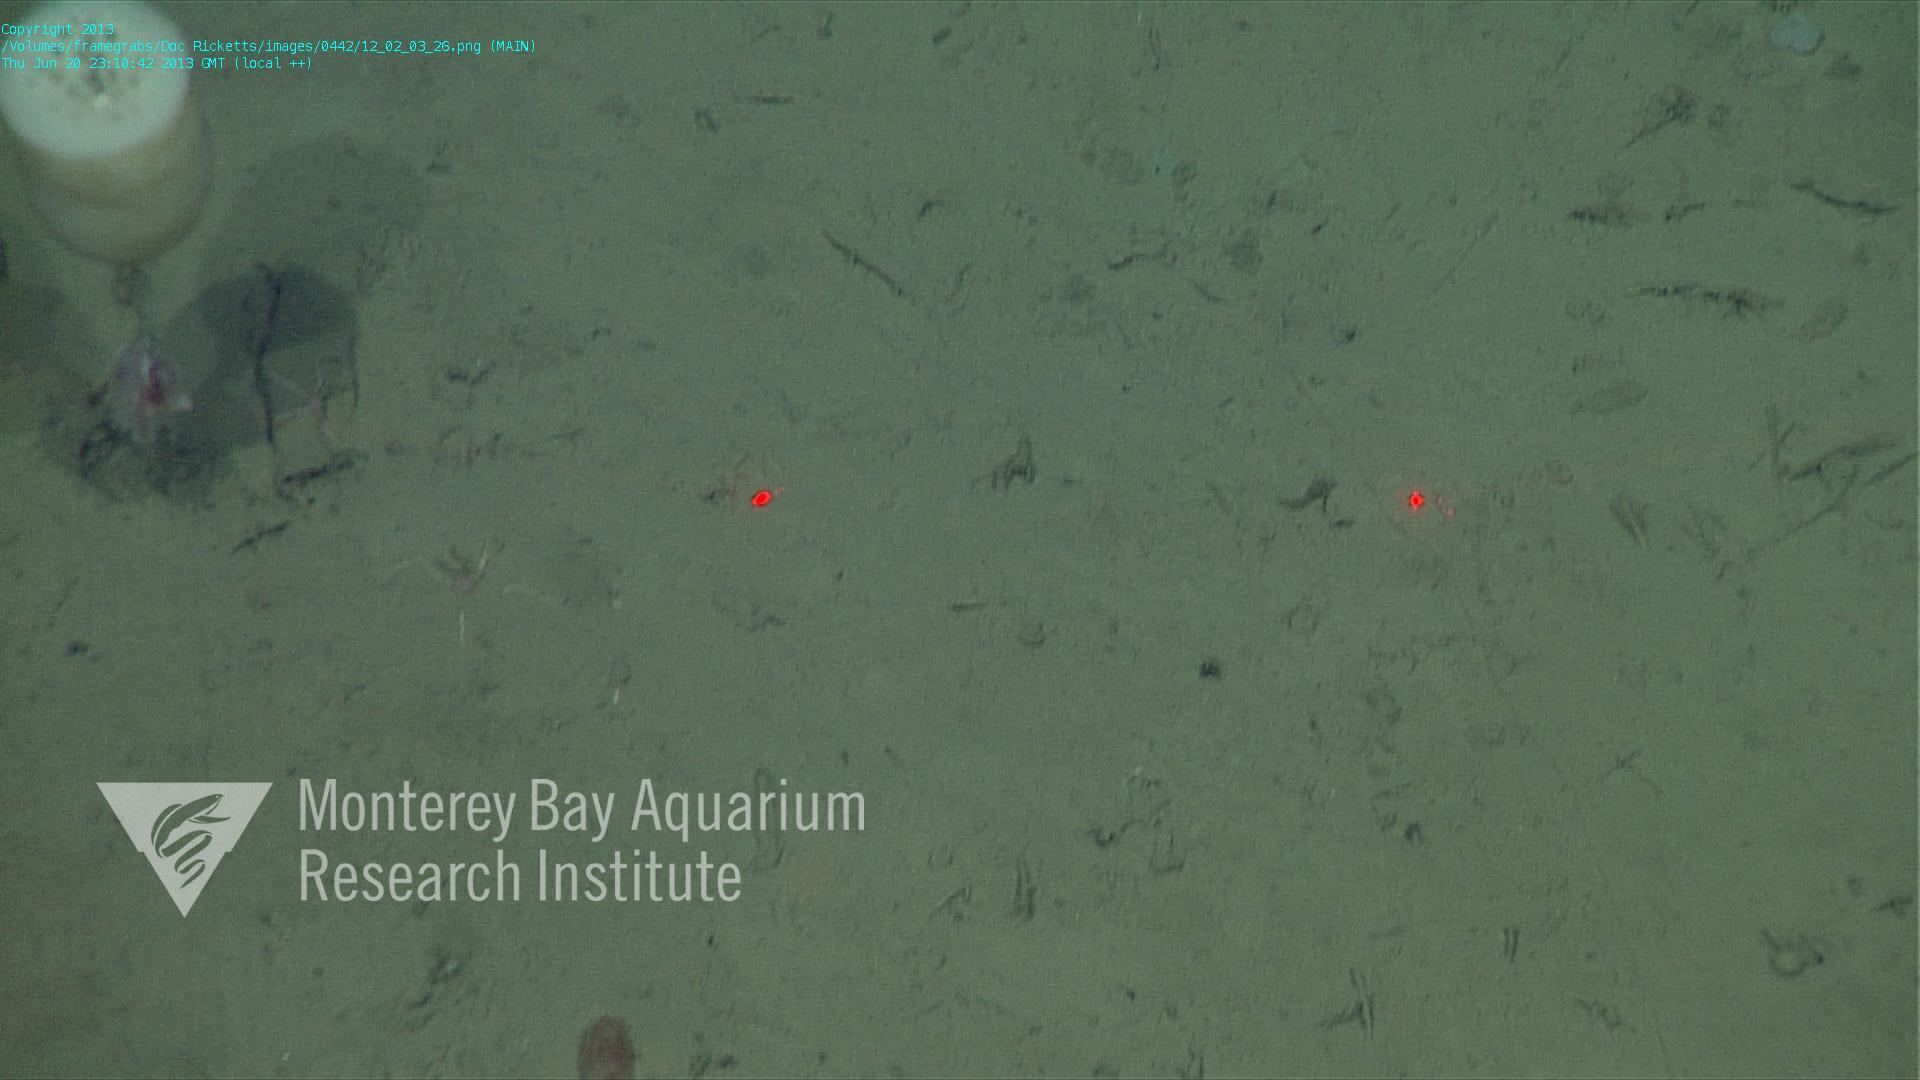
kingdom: Animalia
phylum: Porifera
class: Hexactinellida
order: Amphidiscosida
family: Hyalonematidae
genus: Hyalonema
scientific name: Hyalonema
